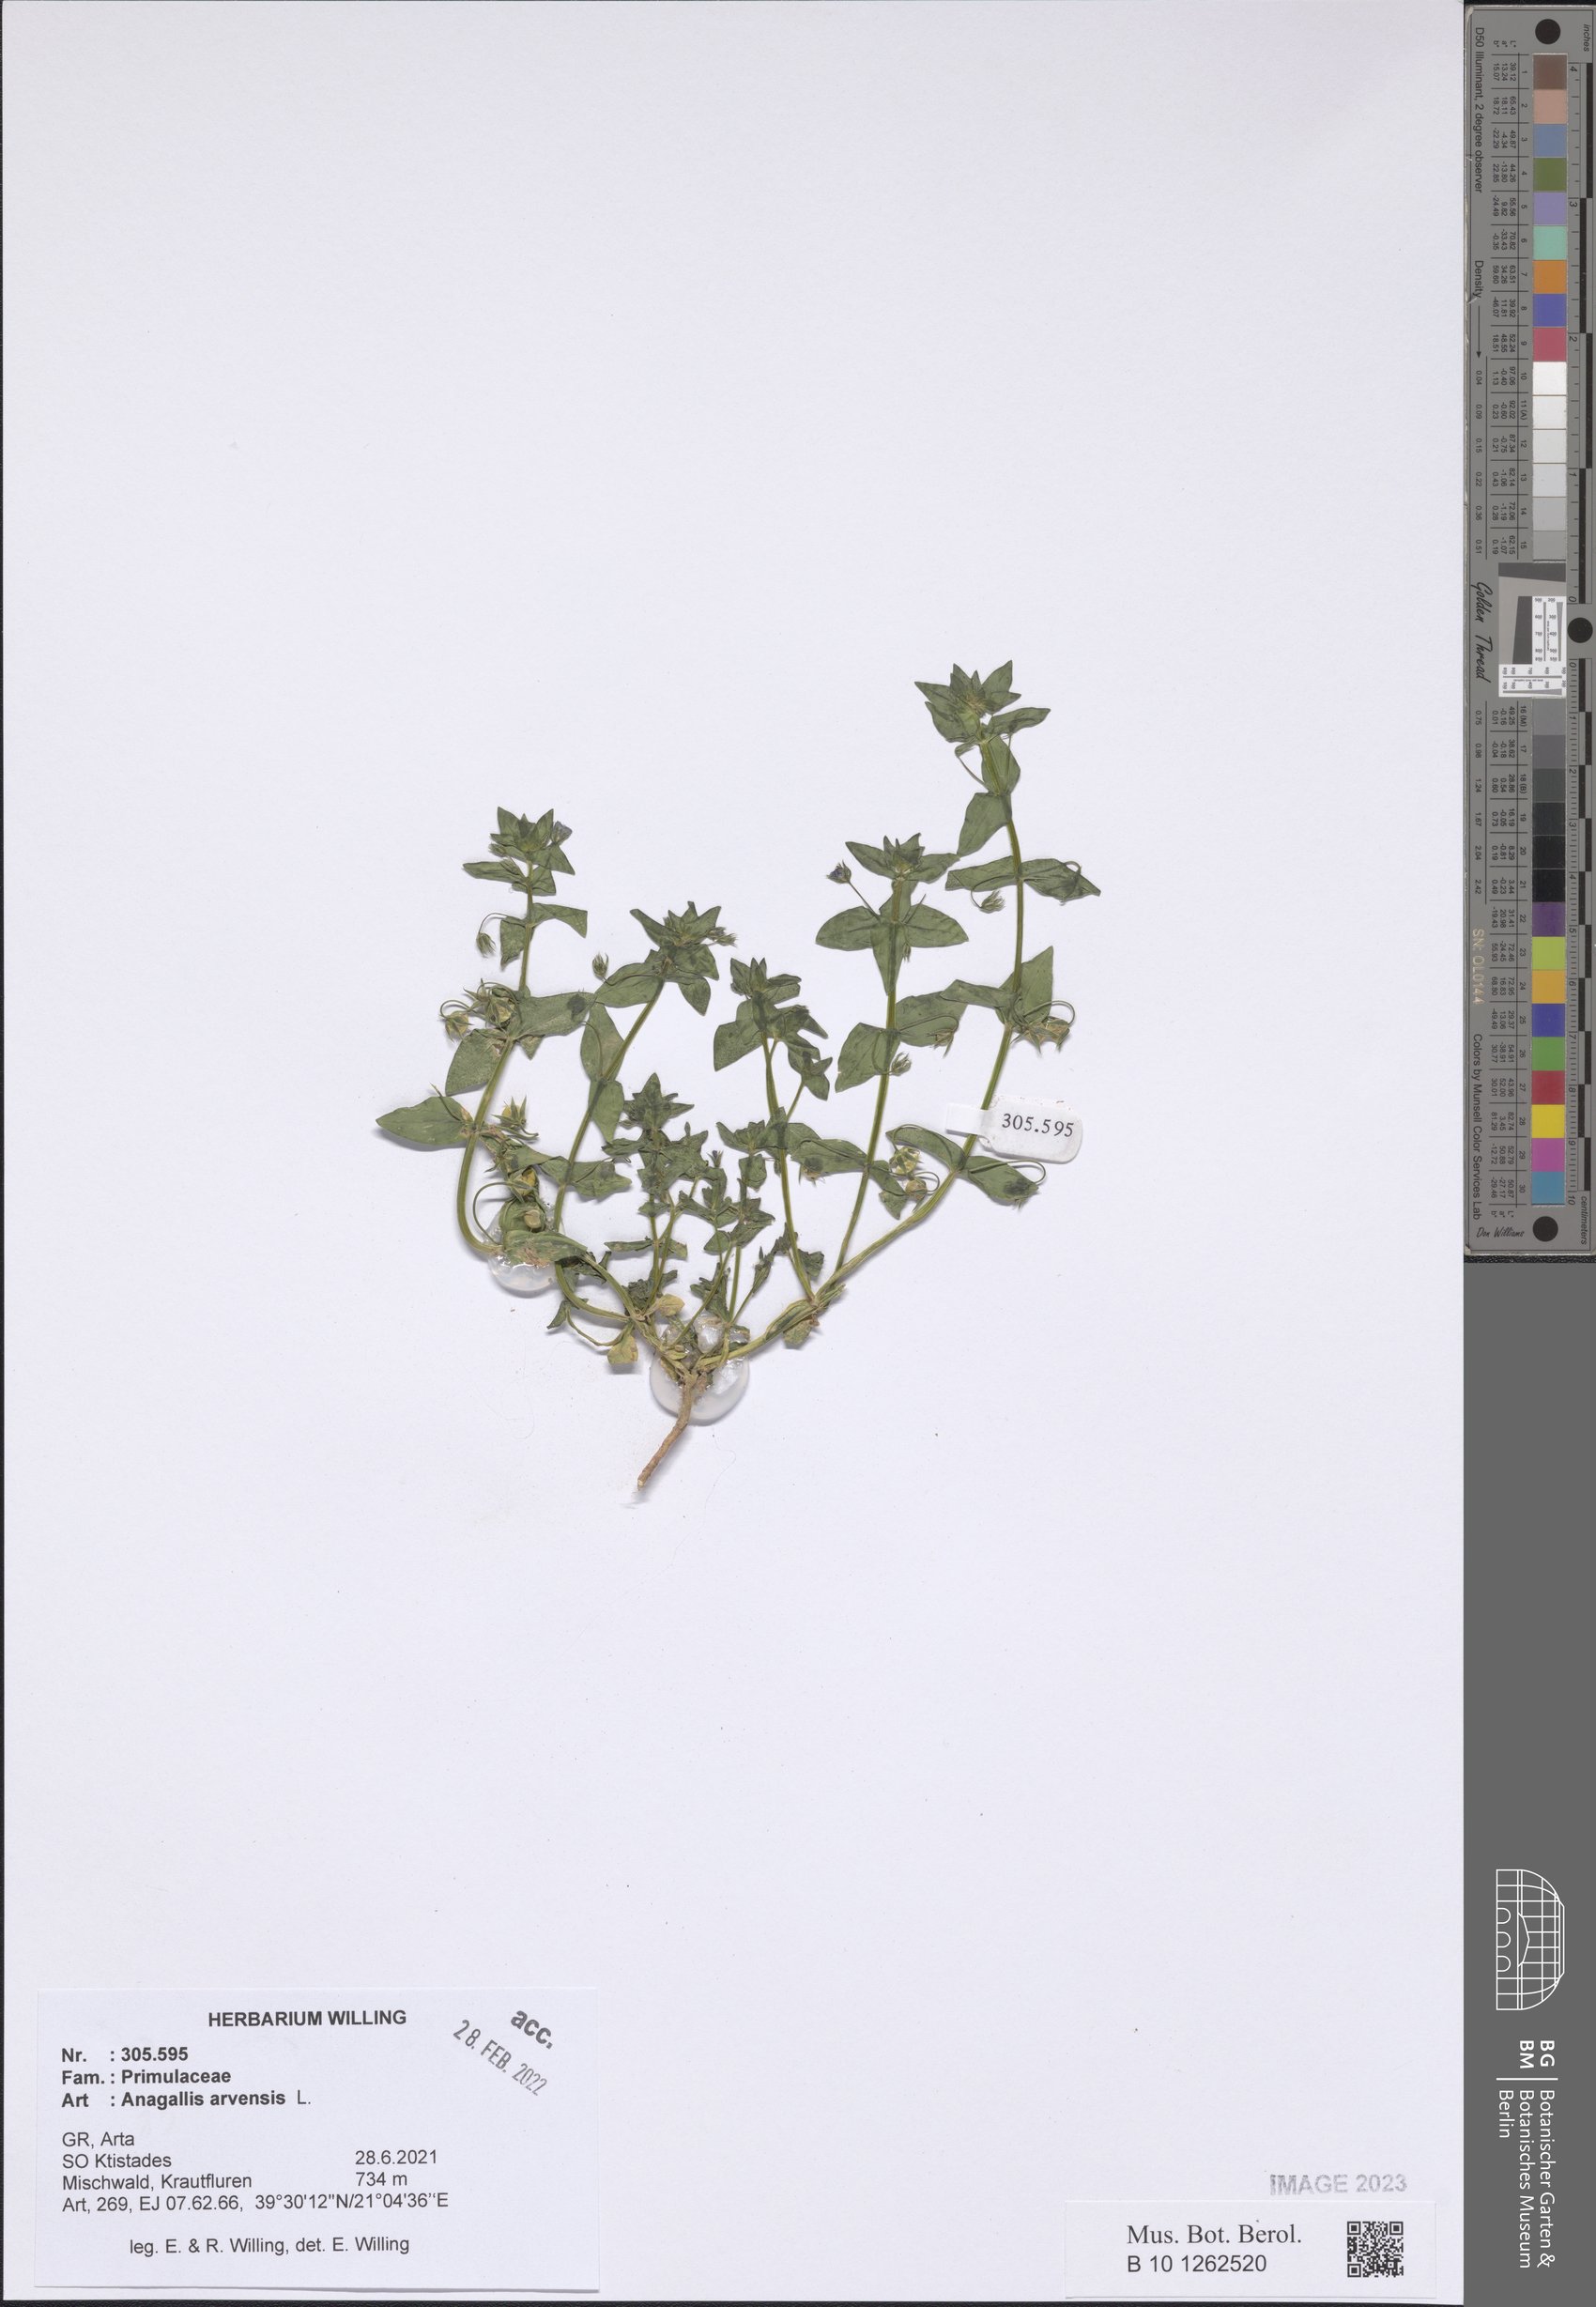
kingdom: Plantae
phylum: Tracheophyta
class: Magnoliopsida
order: Ericales
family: Primulaceae
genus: Lysimachia
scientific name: Lysimachia arvensis
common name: Scarlet pimpernel
